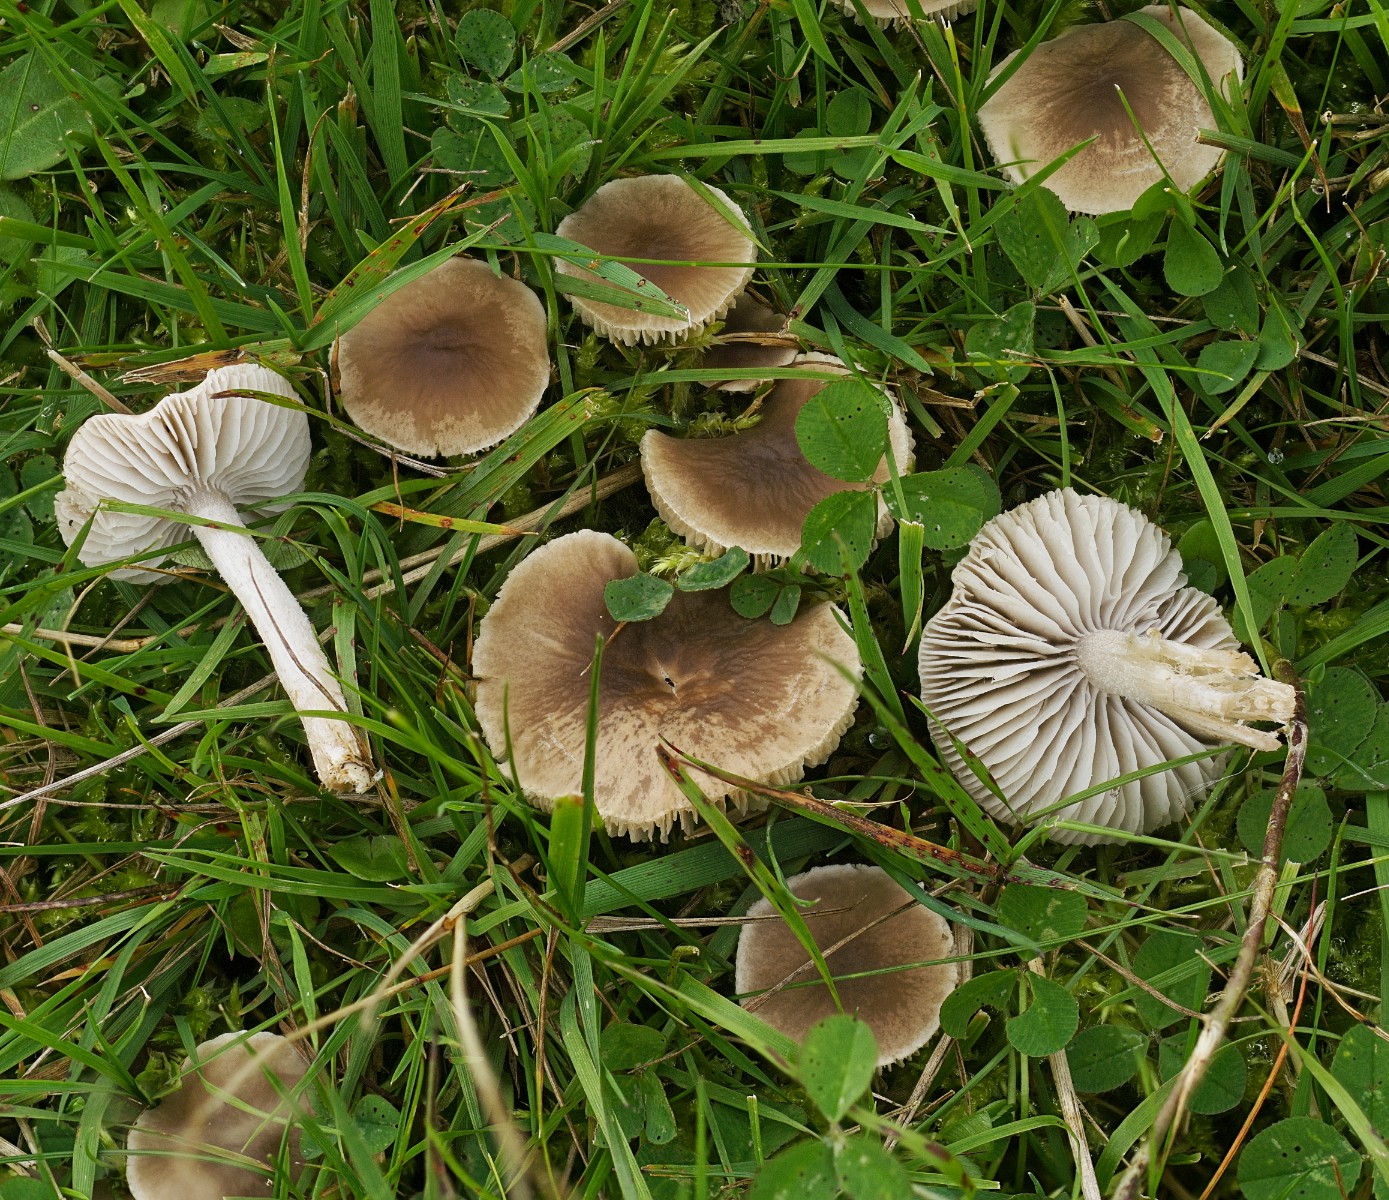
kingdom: Fungi
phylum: Basidiomycota
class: Agaricomycetes
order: Agaricales
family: Tricholomataceae
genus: Dermoloma
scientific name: Dermoloma cuneifolium
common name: eng-nonnehat
